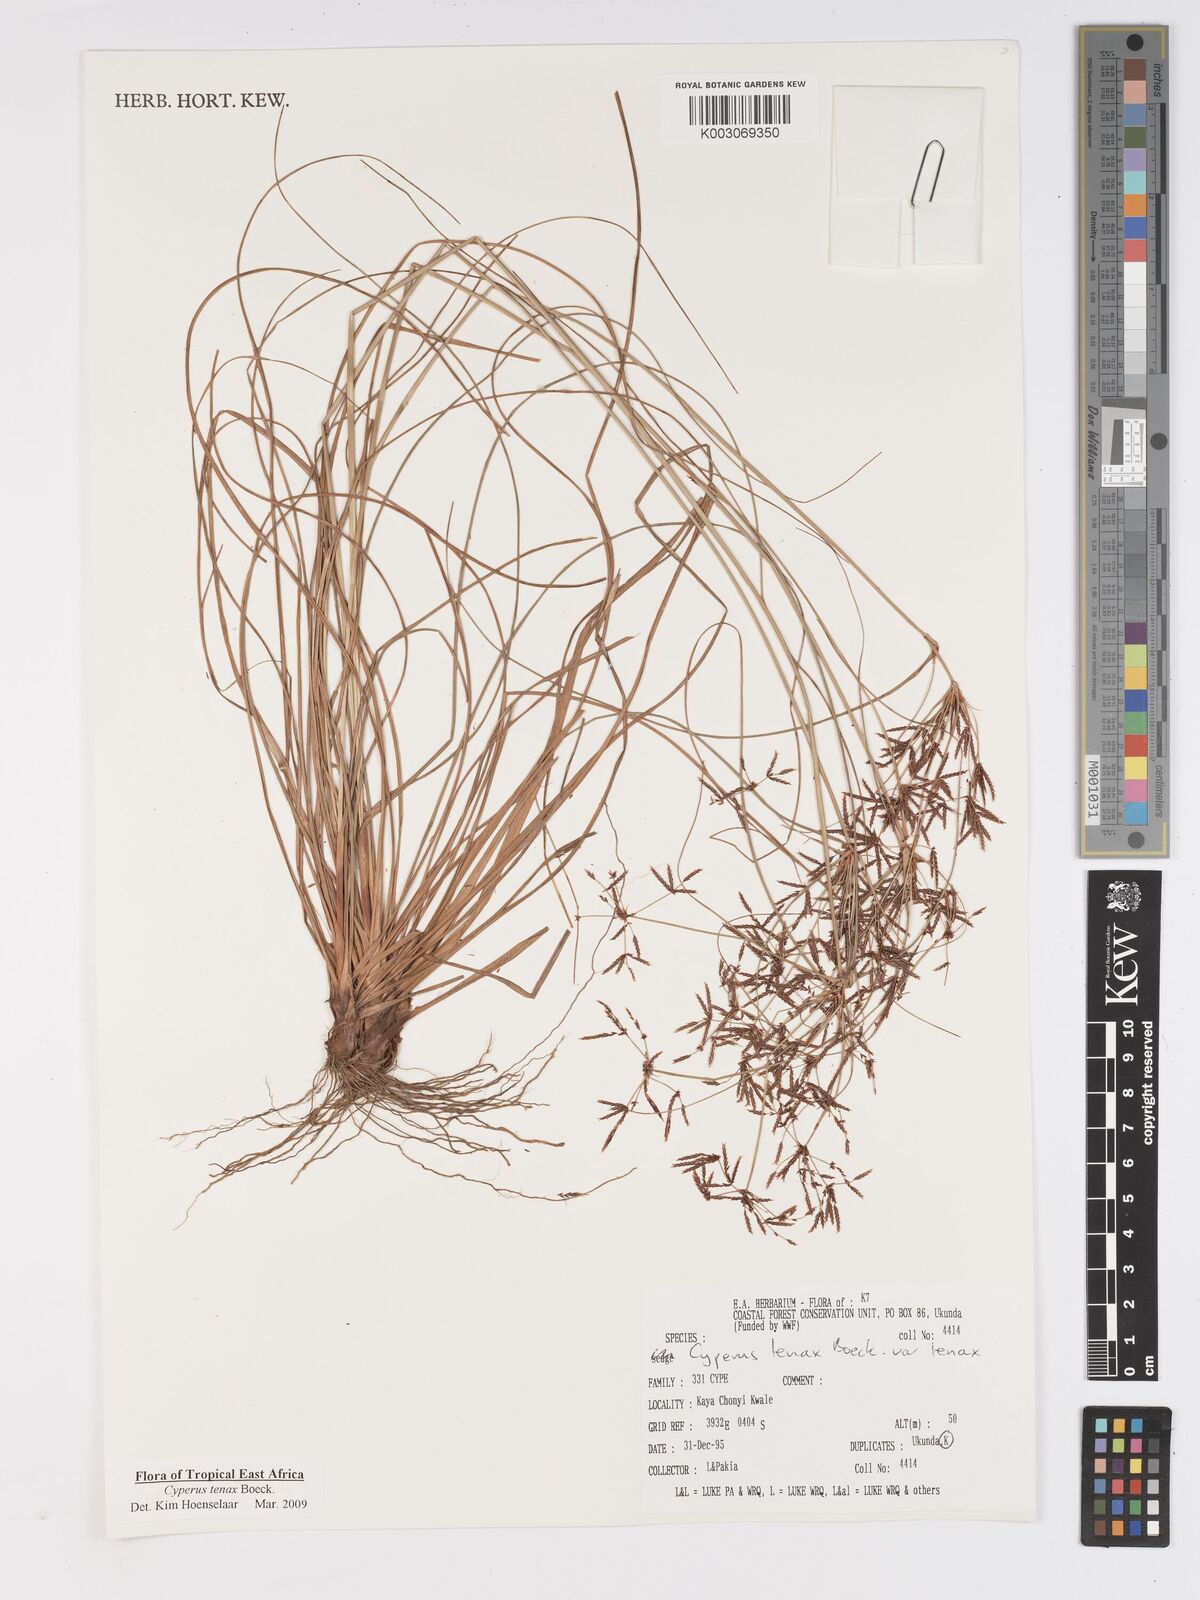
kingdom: Plantae
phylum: Tracheophyta
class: Liliopsida
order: Poales
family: Cyperaceae
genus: Cyperus
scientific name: Cyperus tenax
